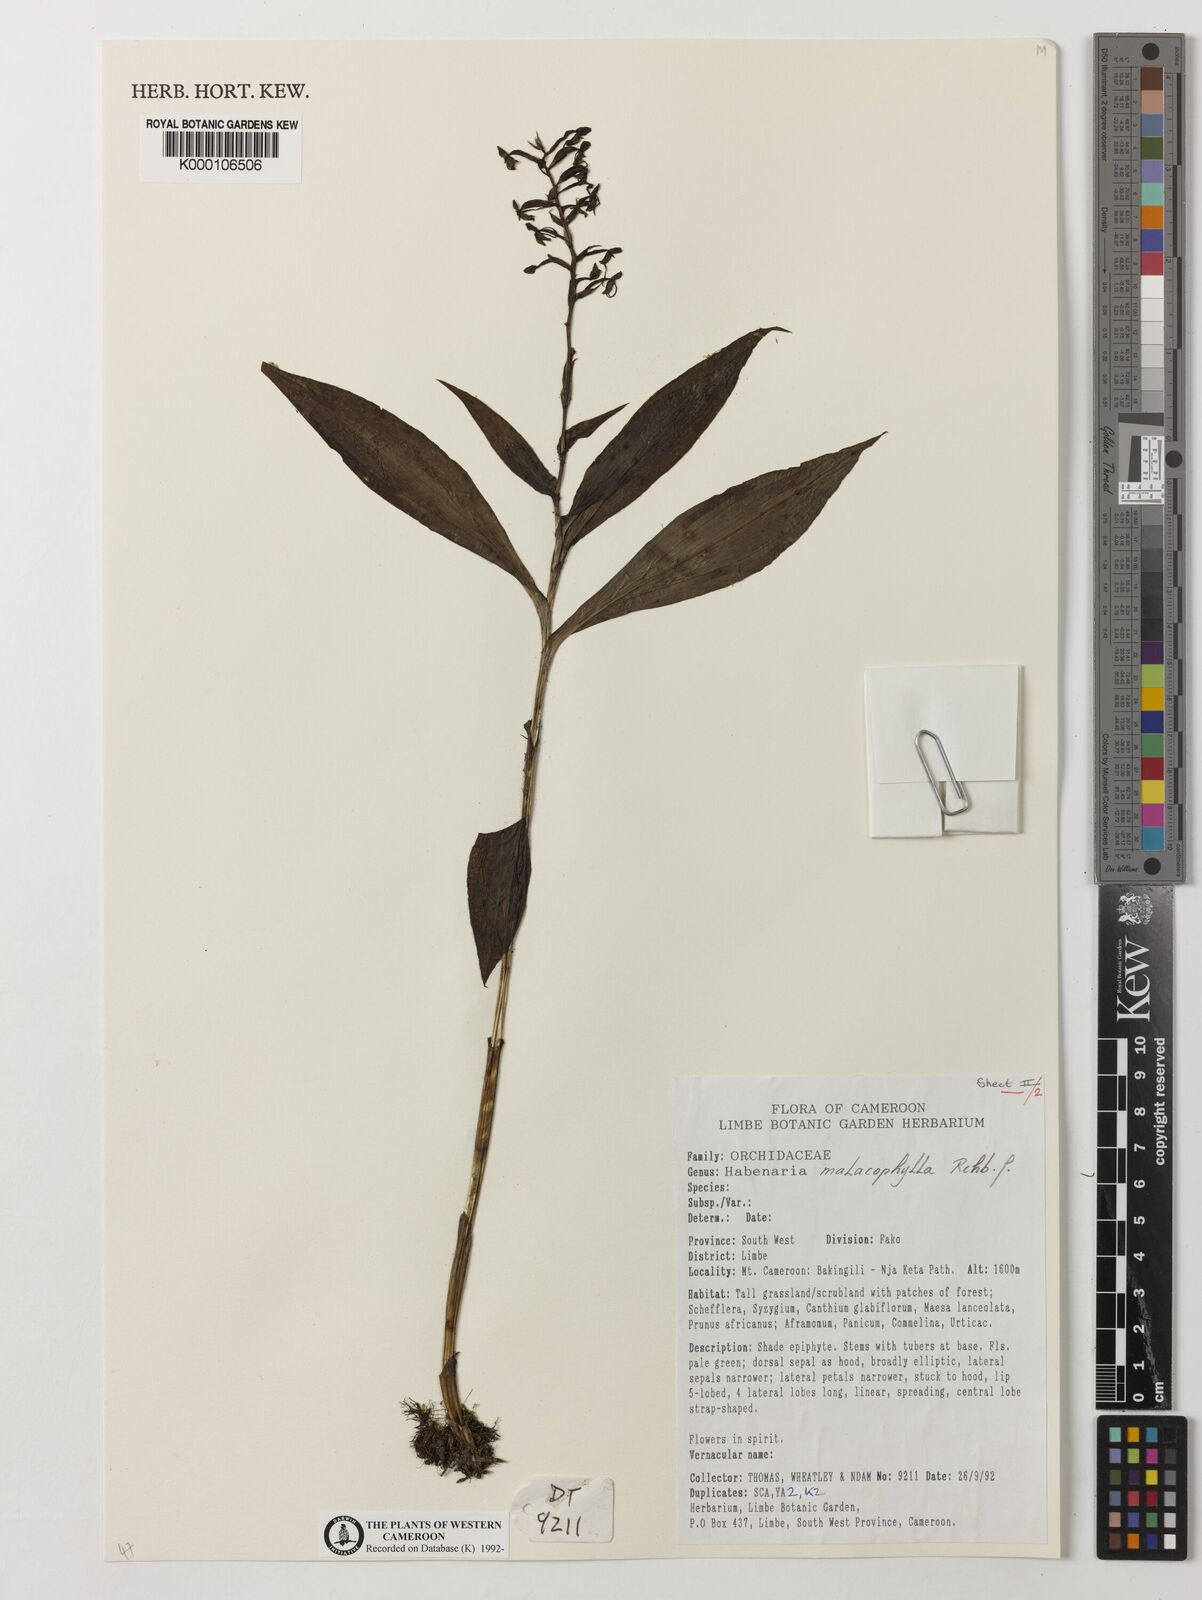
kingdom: Plantae
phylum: Tracheophyta
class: Liliopsida
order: Asparagales
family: Orchidaceae
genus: Habenaria
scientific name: Habenaria malacophylla
